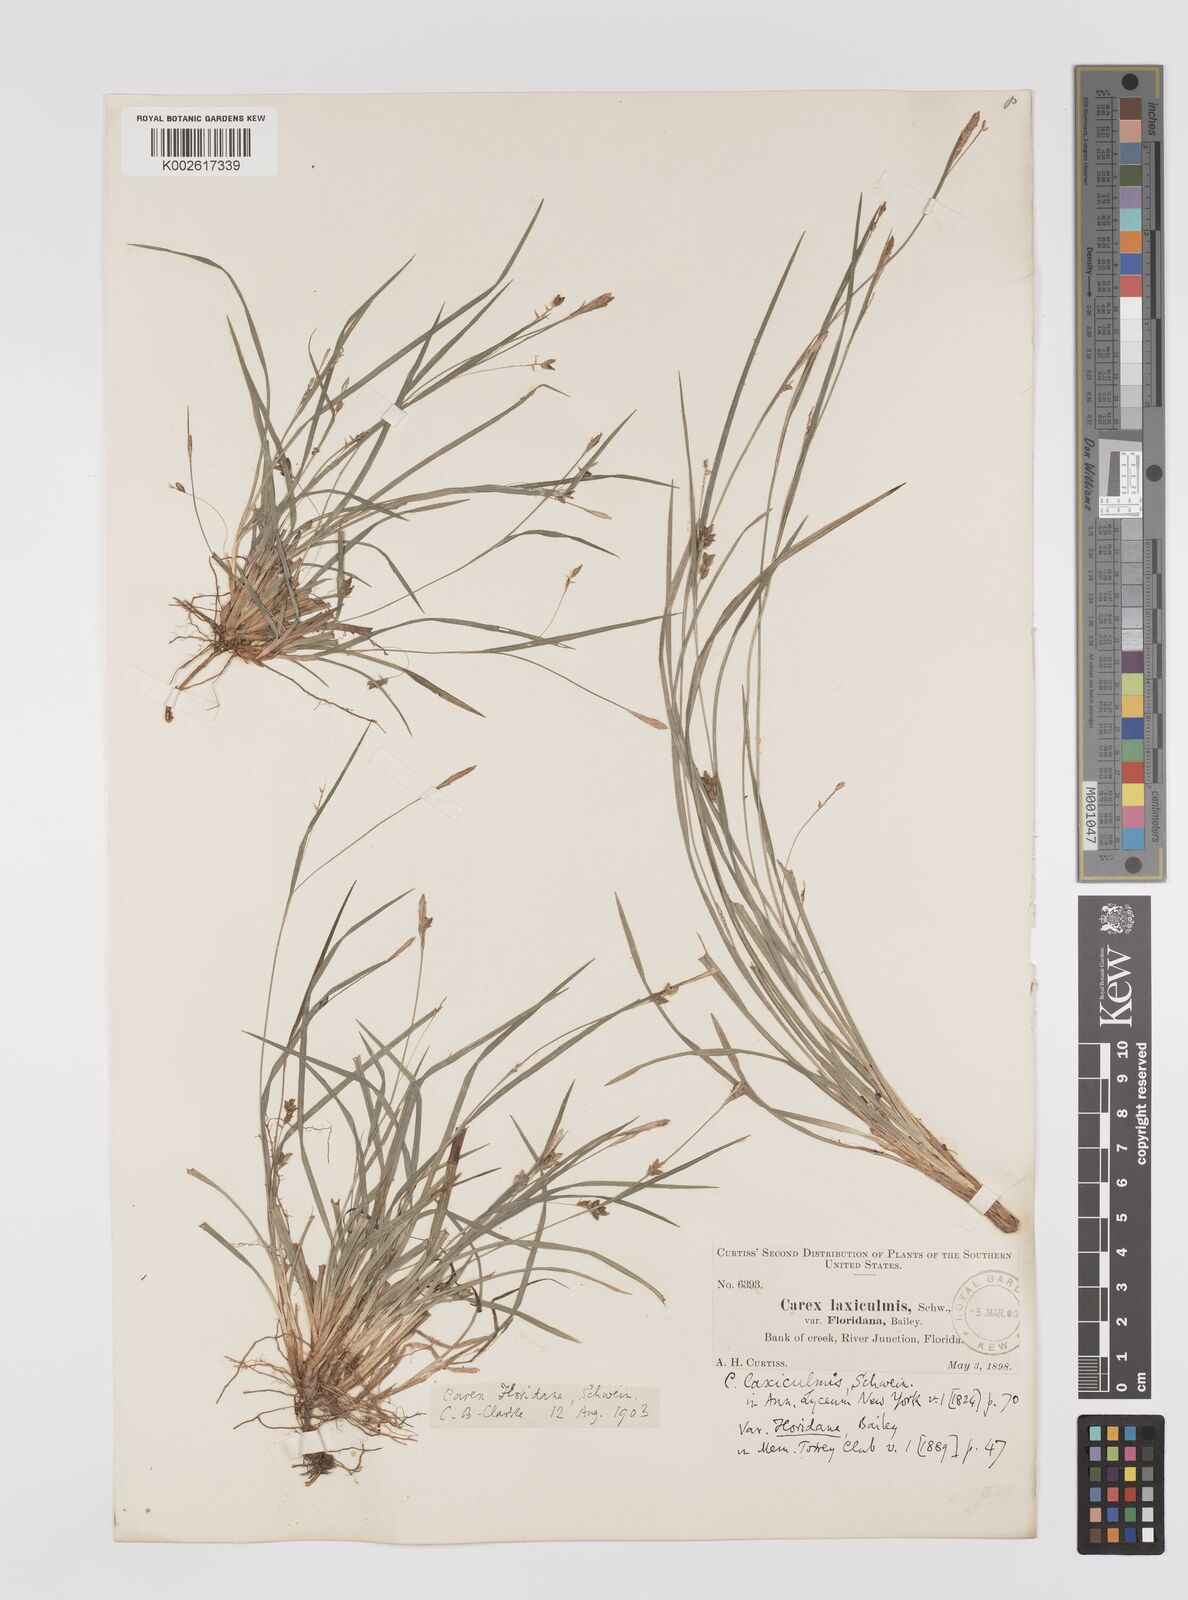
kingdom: Plantae
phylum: Tracheophyta
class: Liliopsida
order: Poales
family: Cyperaceae
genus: Carex
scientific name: Carex floridana
